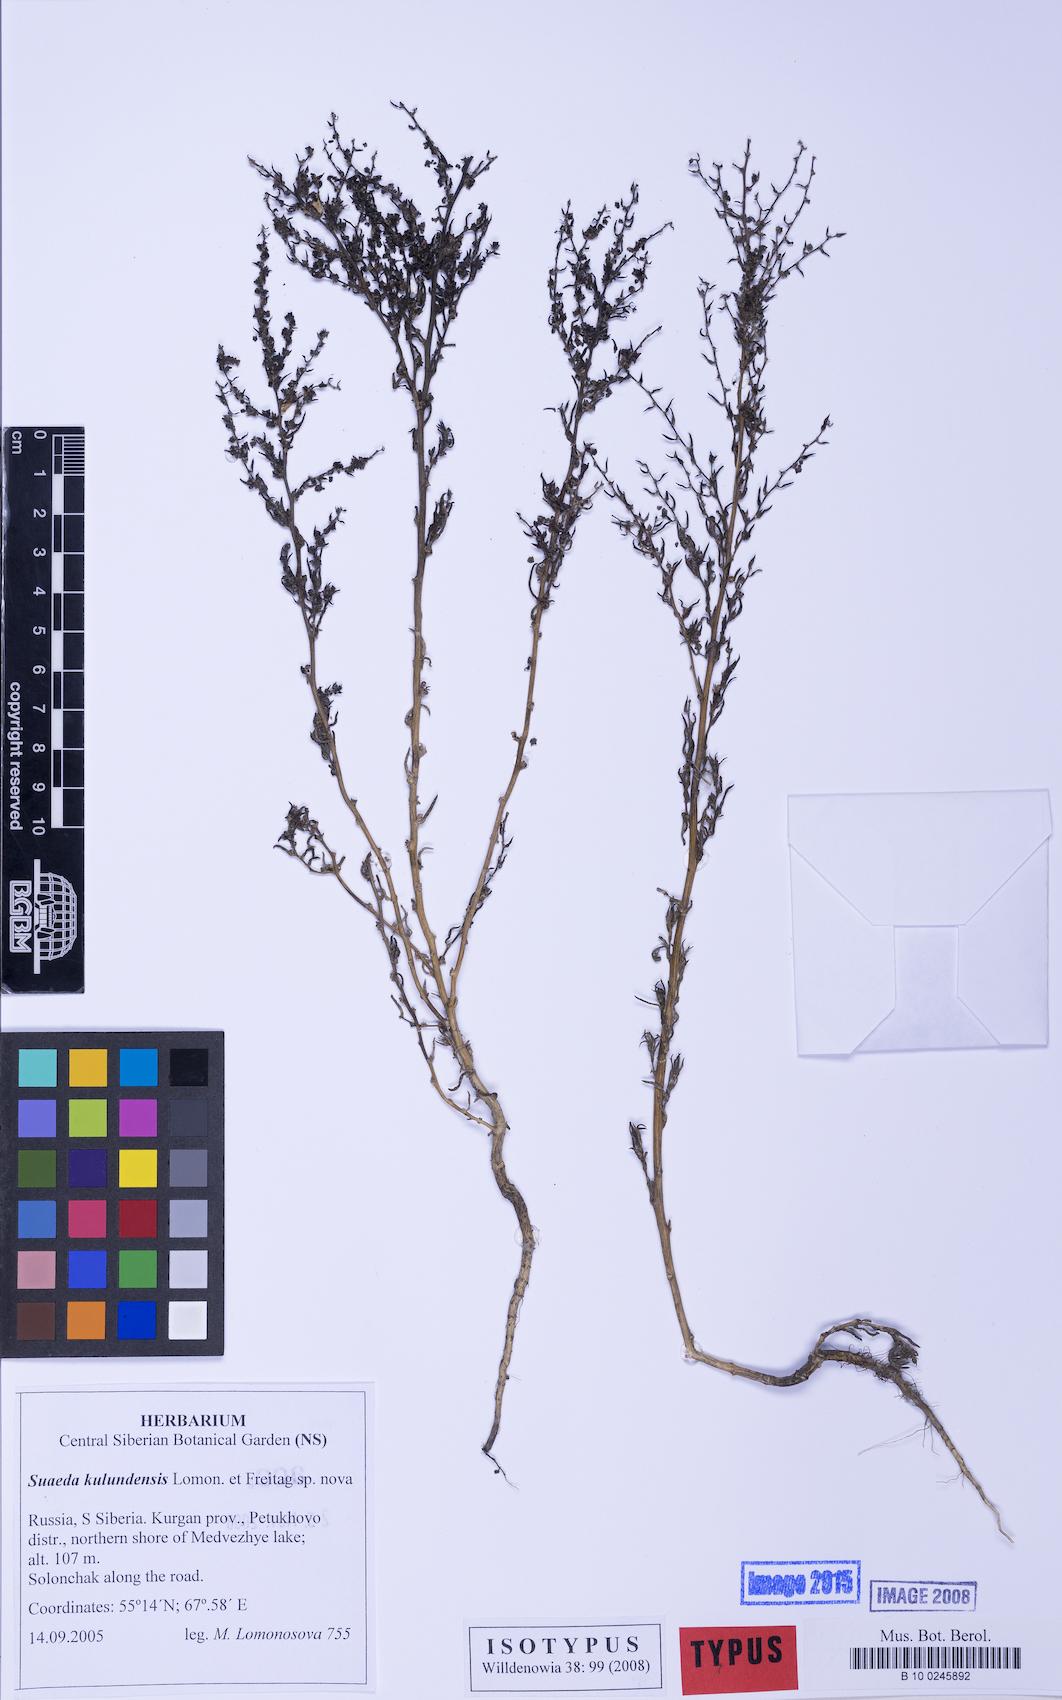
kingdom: Plantae
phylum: Tracheophyta
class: Magnoliopsida
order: Caryophyllales
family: Amaranthaceae
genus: Suaeda
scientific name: Suaeda kulundensis
